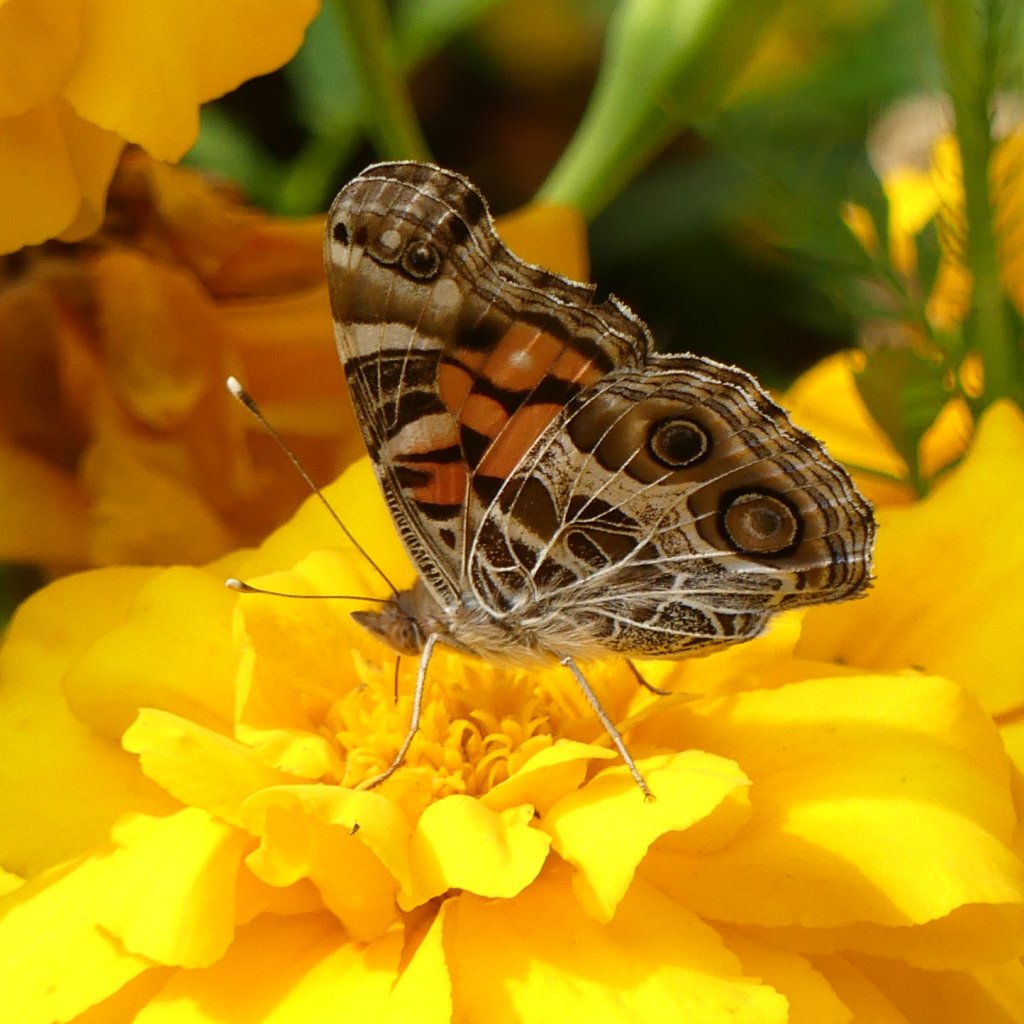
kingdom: Animalia
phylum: Arthropoda
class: Insecta
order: Lepidoptera
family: Nymphalidae
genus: Vanessa
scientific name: Vanessa virginiensis
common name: American Lady
